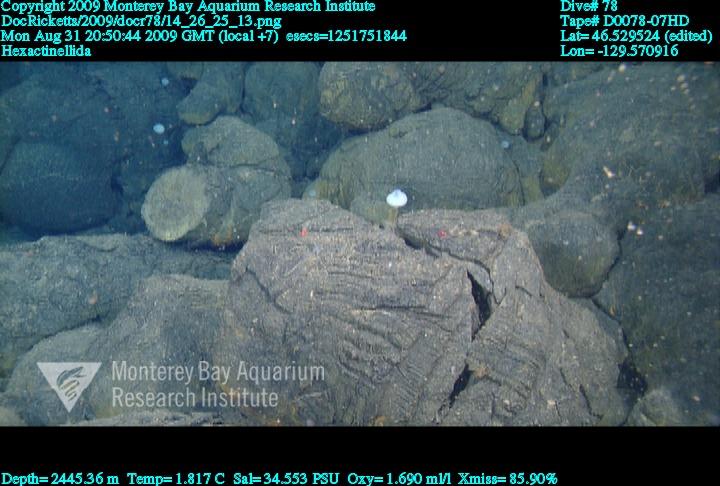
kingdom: Animalia
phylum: Porifera
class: Hexactinellida
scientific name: Hexactinellida
